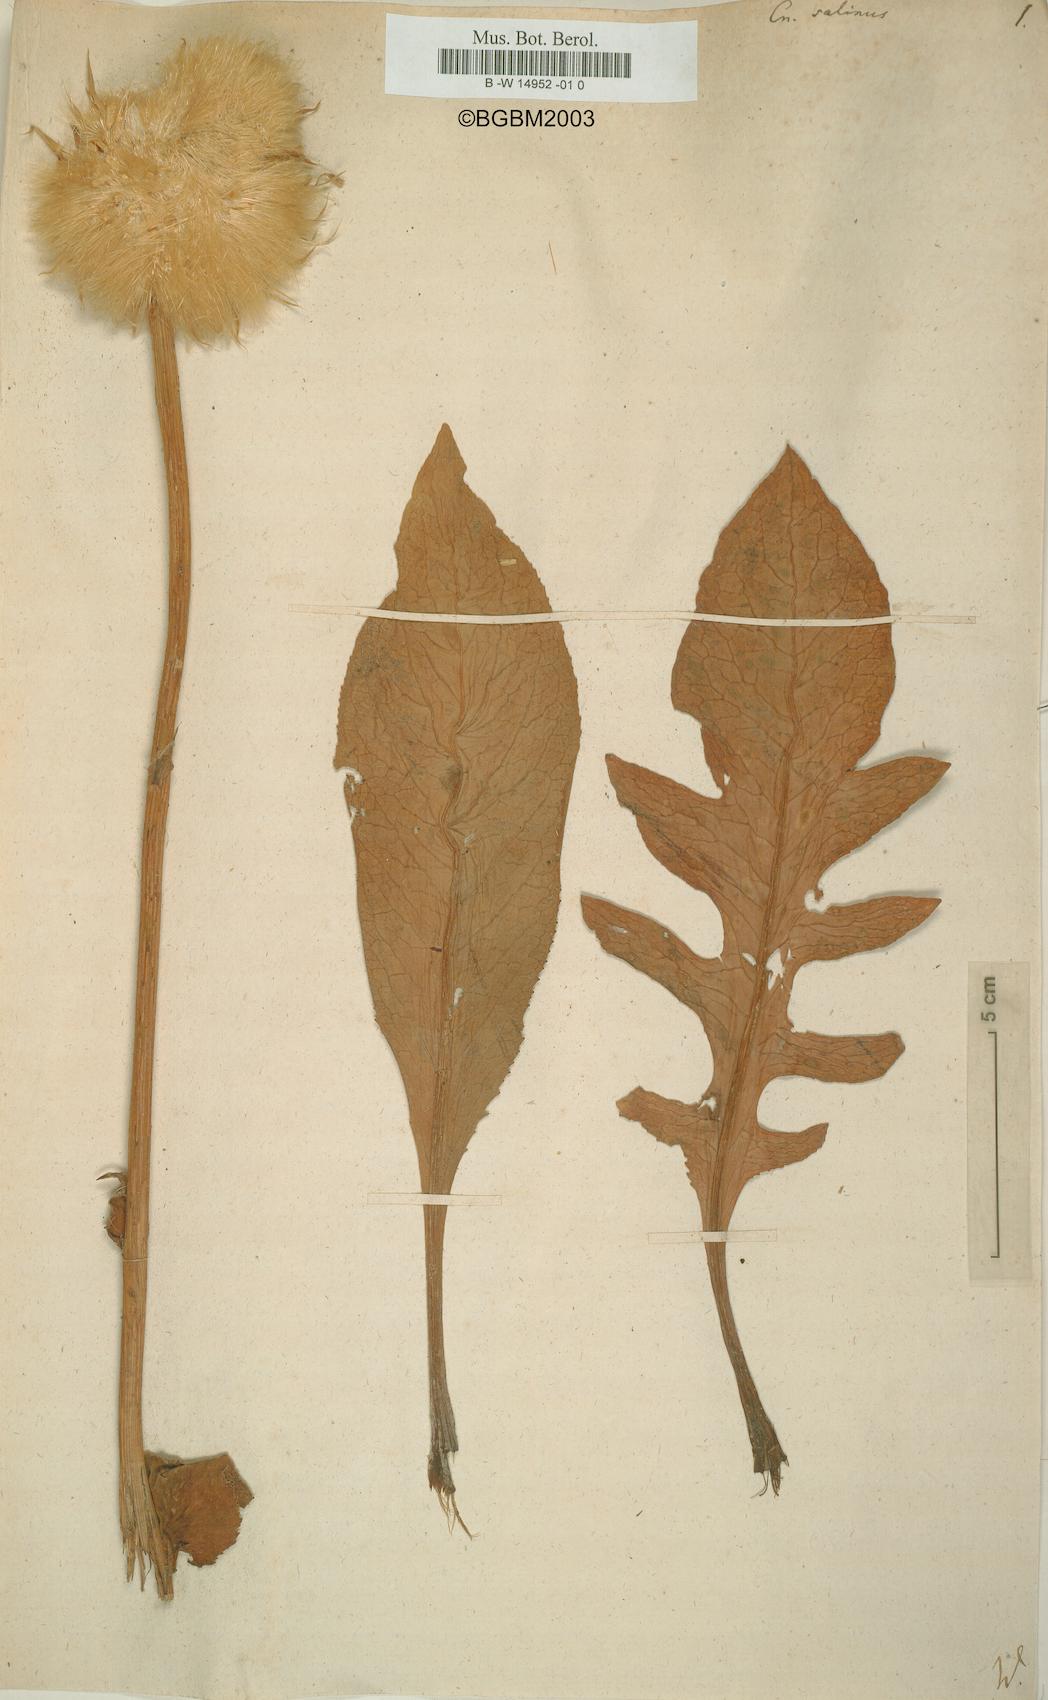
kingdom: Plantae
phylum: Tracheophyta
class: Magnoliopsida
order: Asterales
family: Asteraceae
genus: Klasea
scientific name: Klasea serratuloides
